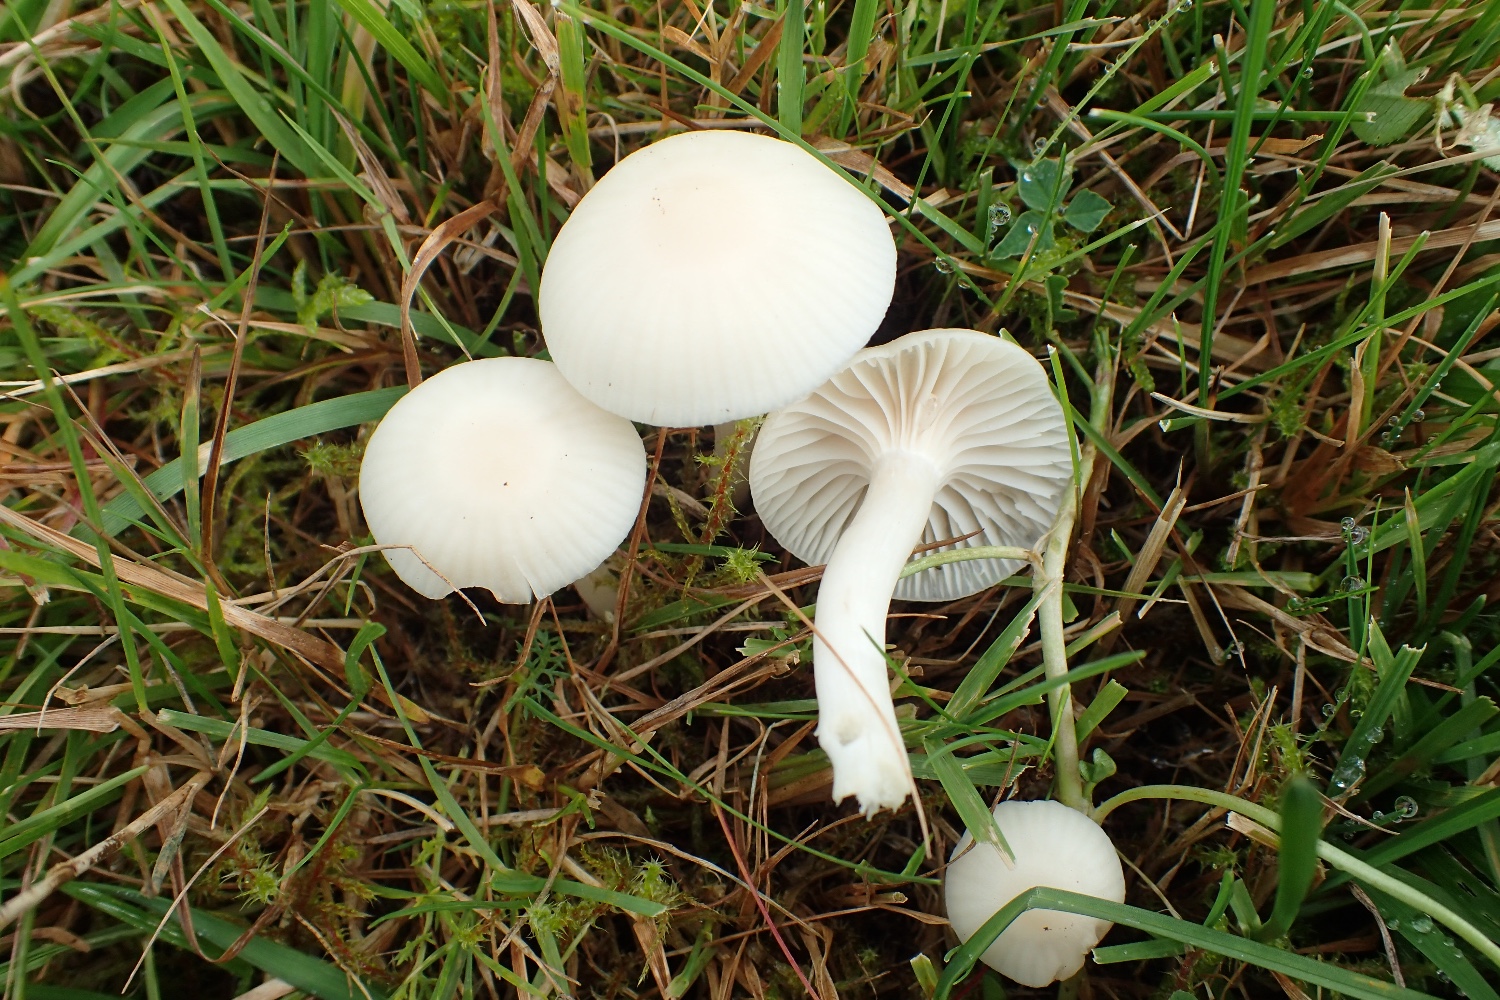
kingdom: Fungi
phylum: Basidiomycota
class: Agaricomycetes
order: Agaricales
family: Hygrophoraceae
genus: Cuphophyllus
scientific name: Cuphophyllus virgineus
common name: snehvid vokshat
